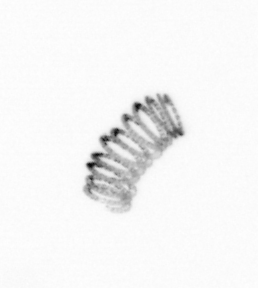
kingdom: Chromista
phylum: Ochrophyta
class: Bacillariophyceae
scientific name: Bacillariophyceae
